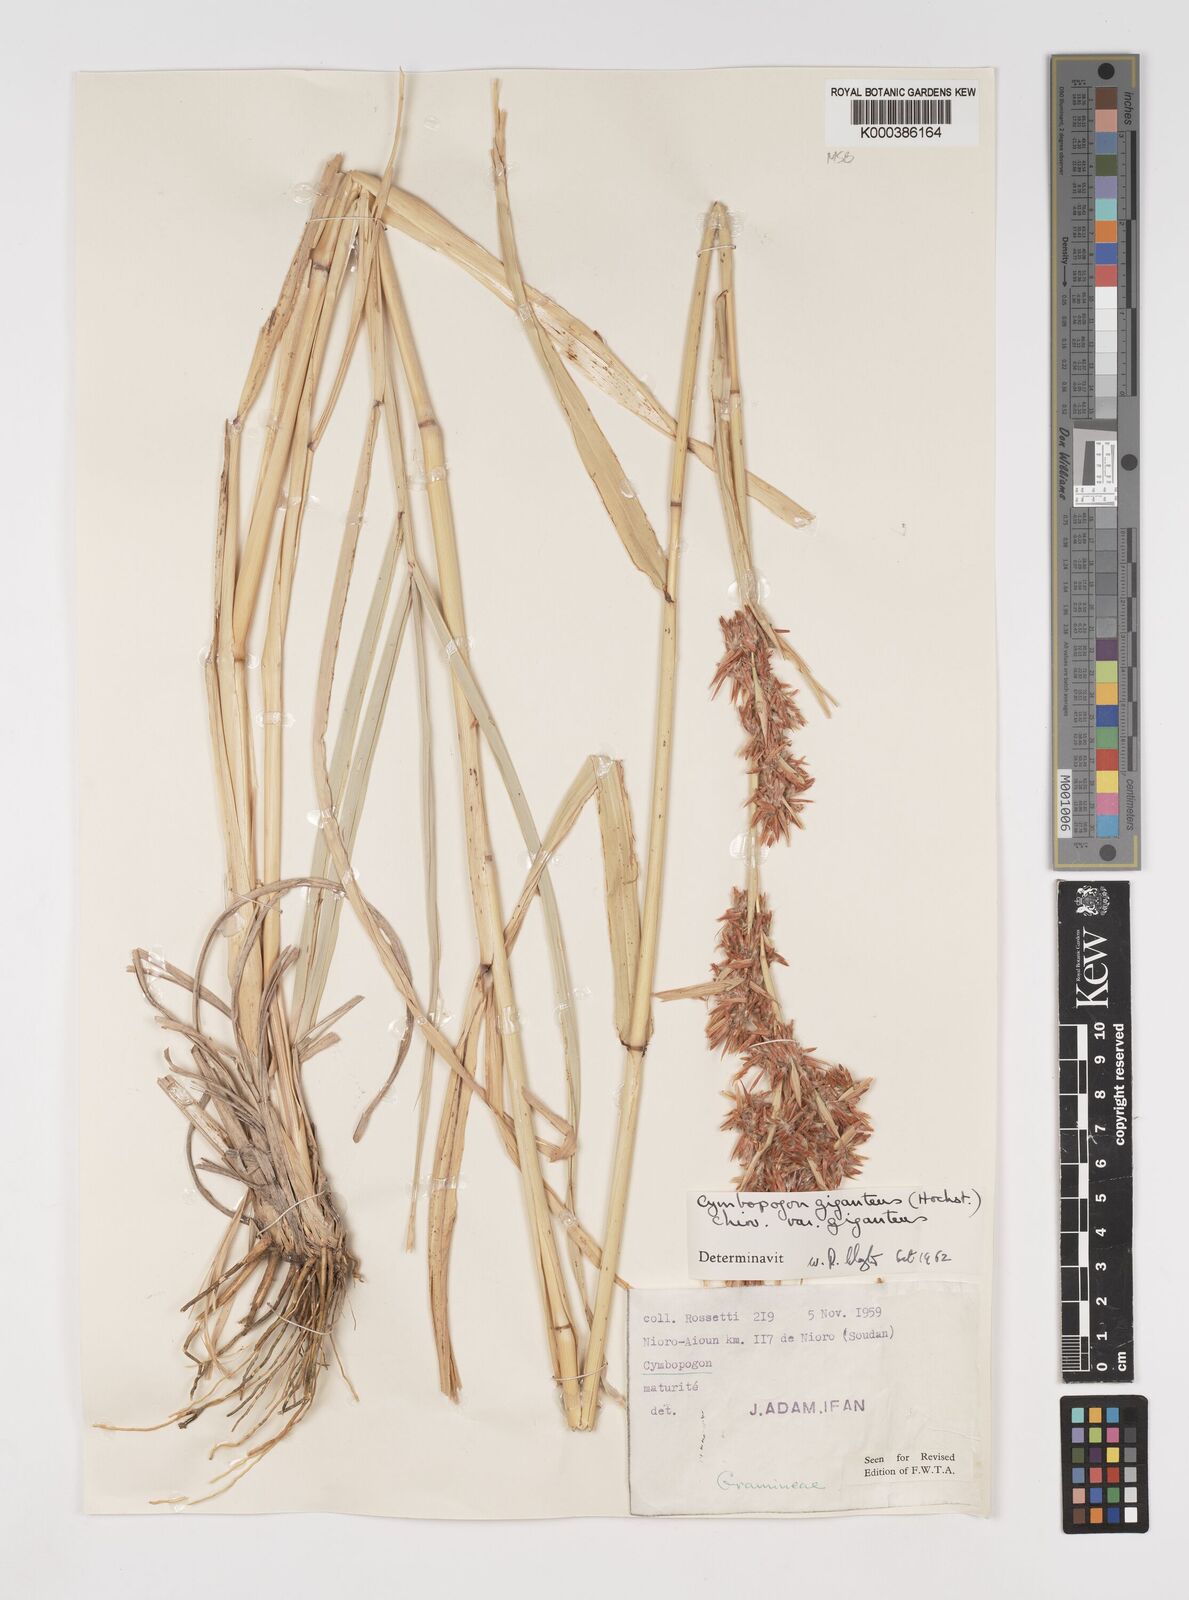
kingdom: Plantae
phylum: Tracheophyta
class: Liliopsida
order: Poales
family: Poaceae
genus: Cymbopogon
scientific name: Cymbopogon giganteus
